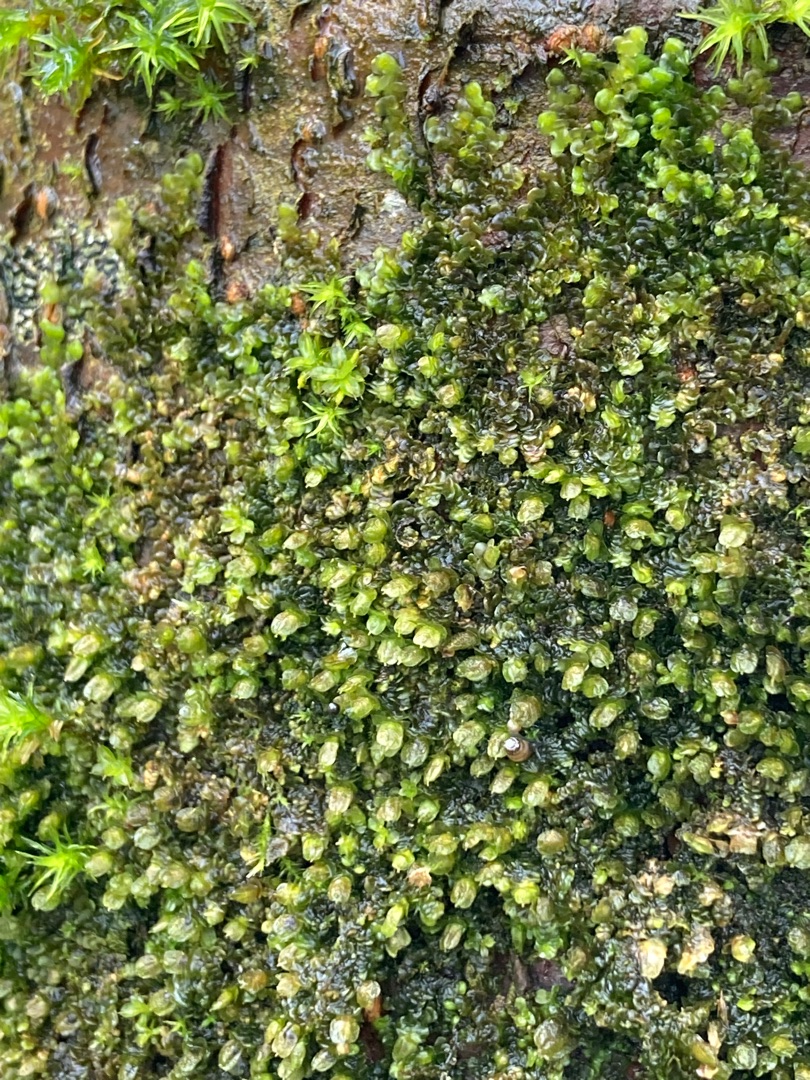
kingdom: Plantae
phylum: Marchantiophyta
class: Jungermanniopsida
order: Porellales
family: Frullaniaceae
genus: Frullania
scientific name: Frullania dilatata
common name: Mat bronzemos
